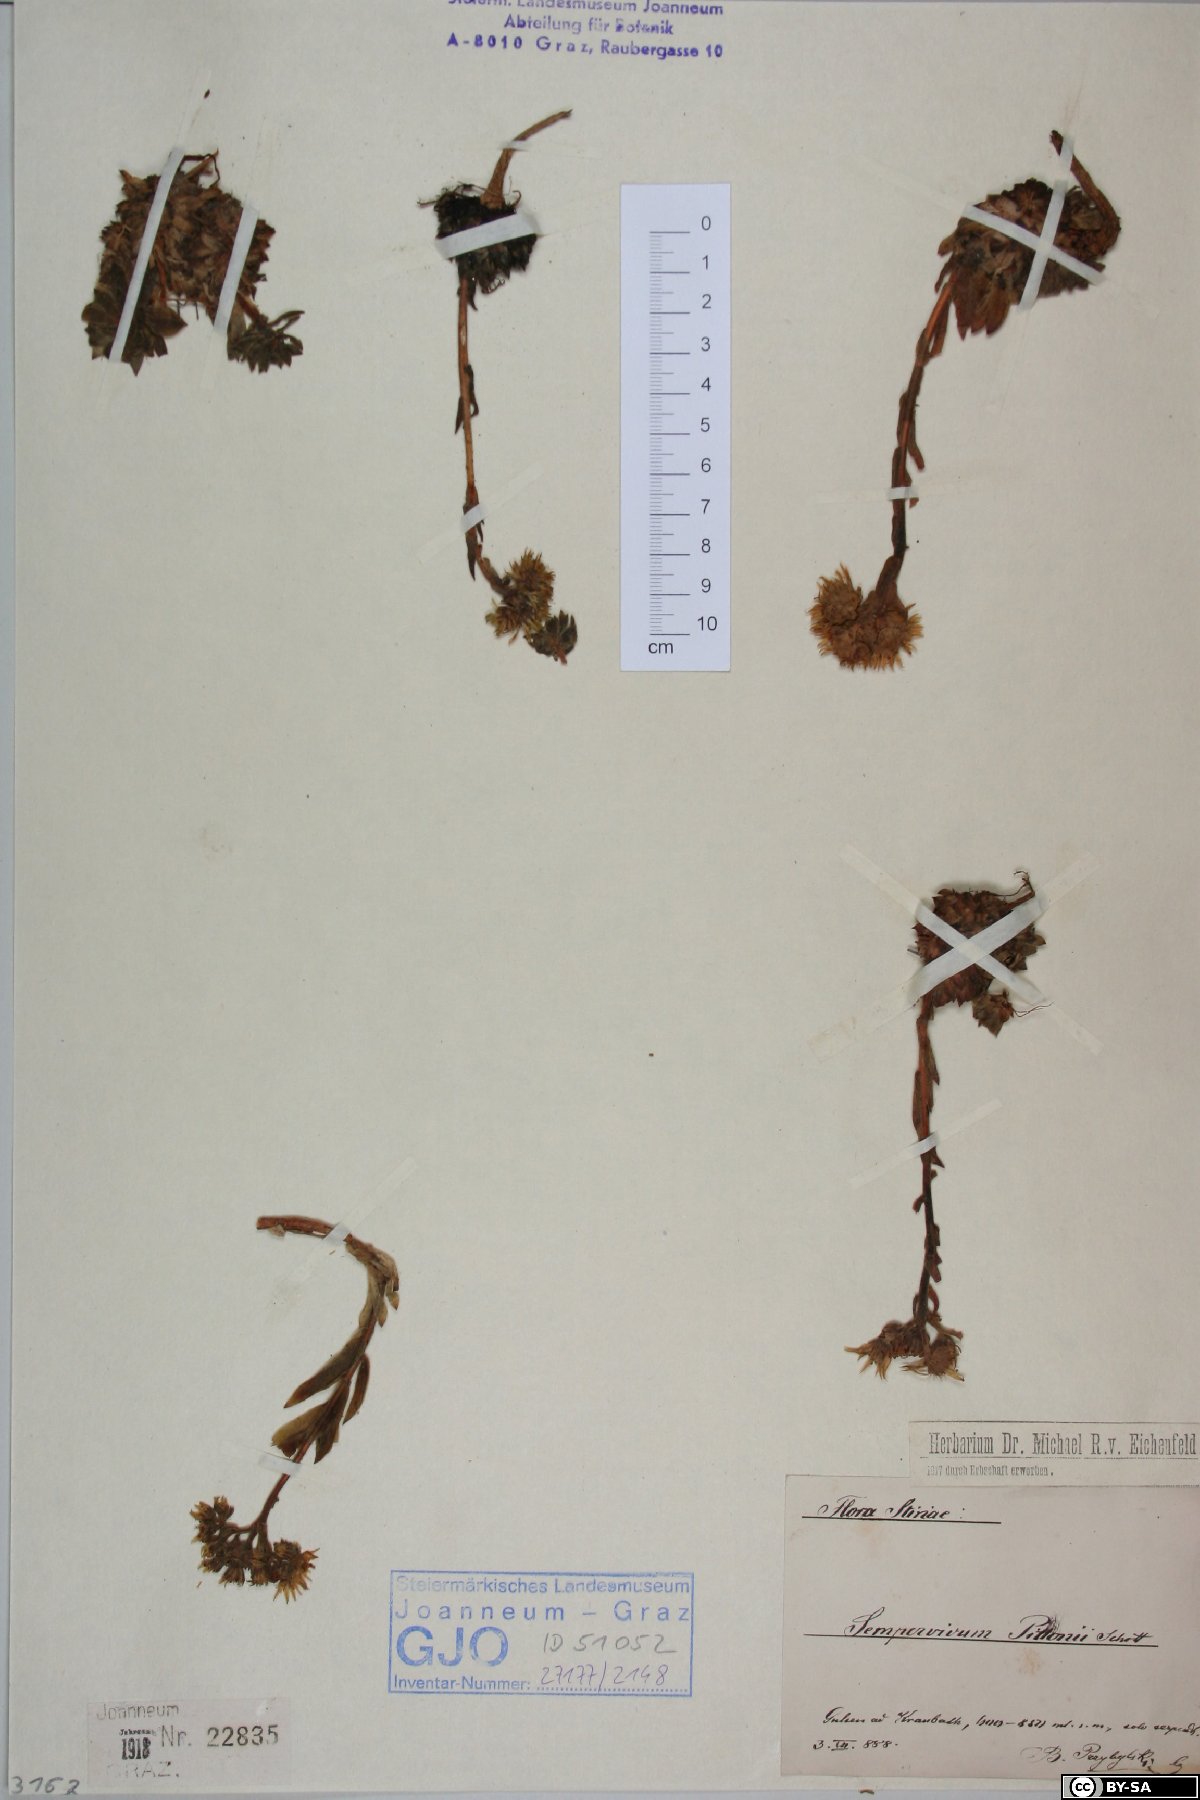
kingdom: Plantae
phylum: Tracheophyta
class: Magnoliopsida
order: Saxifragales
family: Crassulaceae
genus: Sempervivum
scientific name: Sempervivum pittonii
